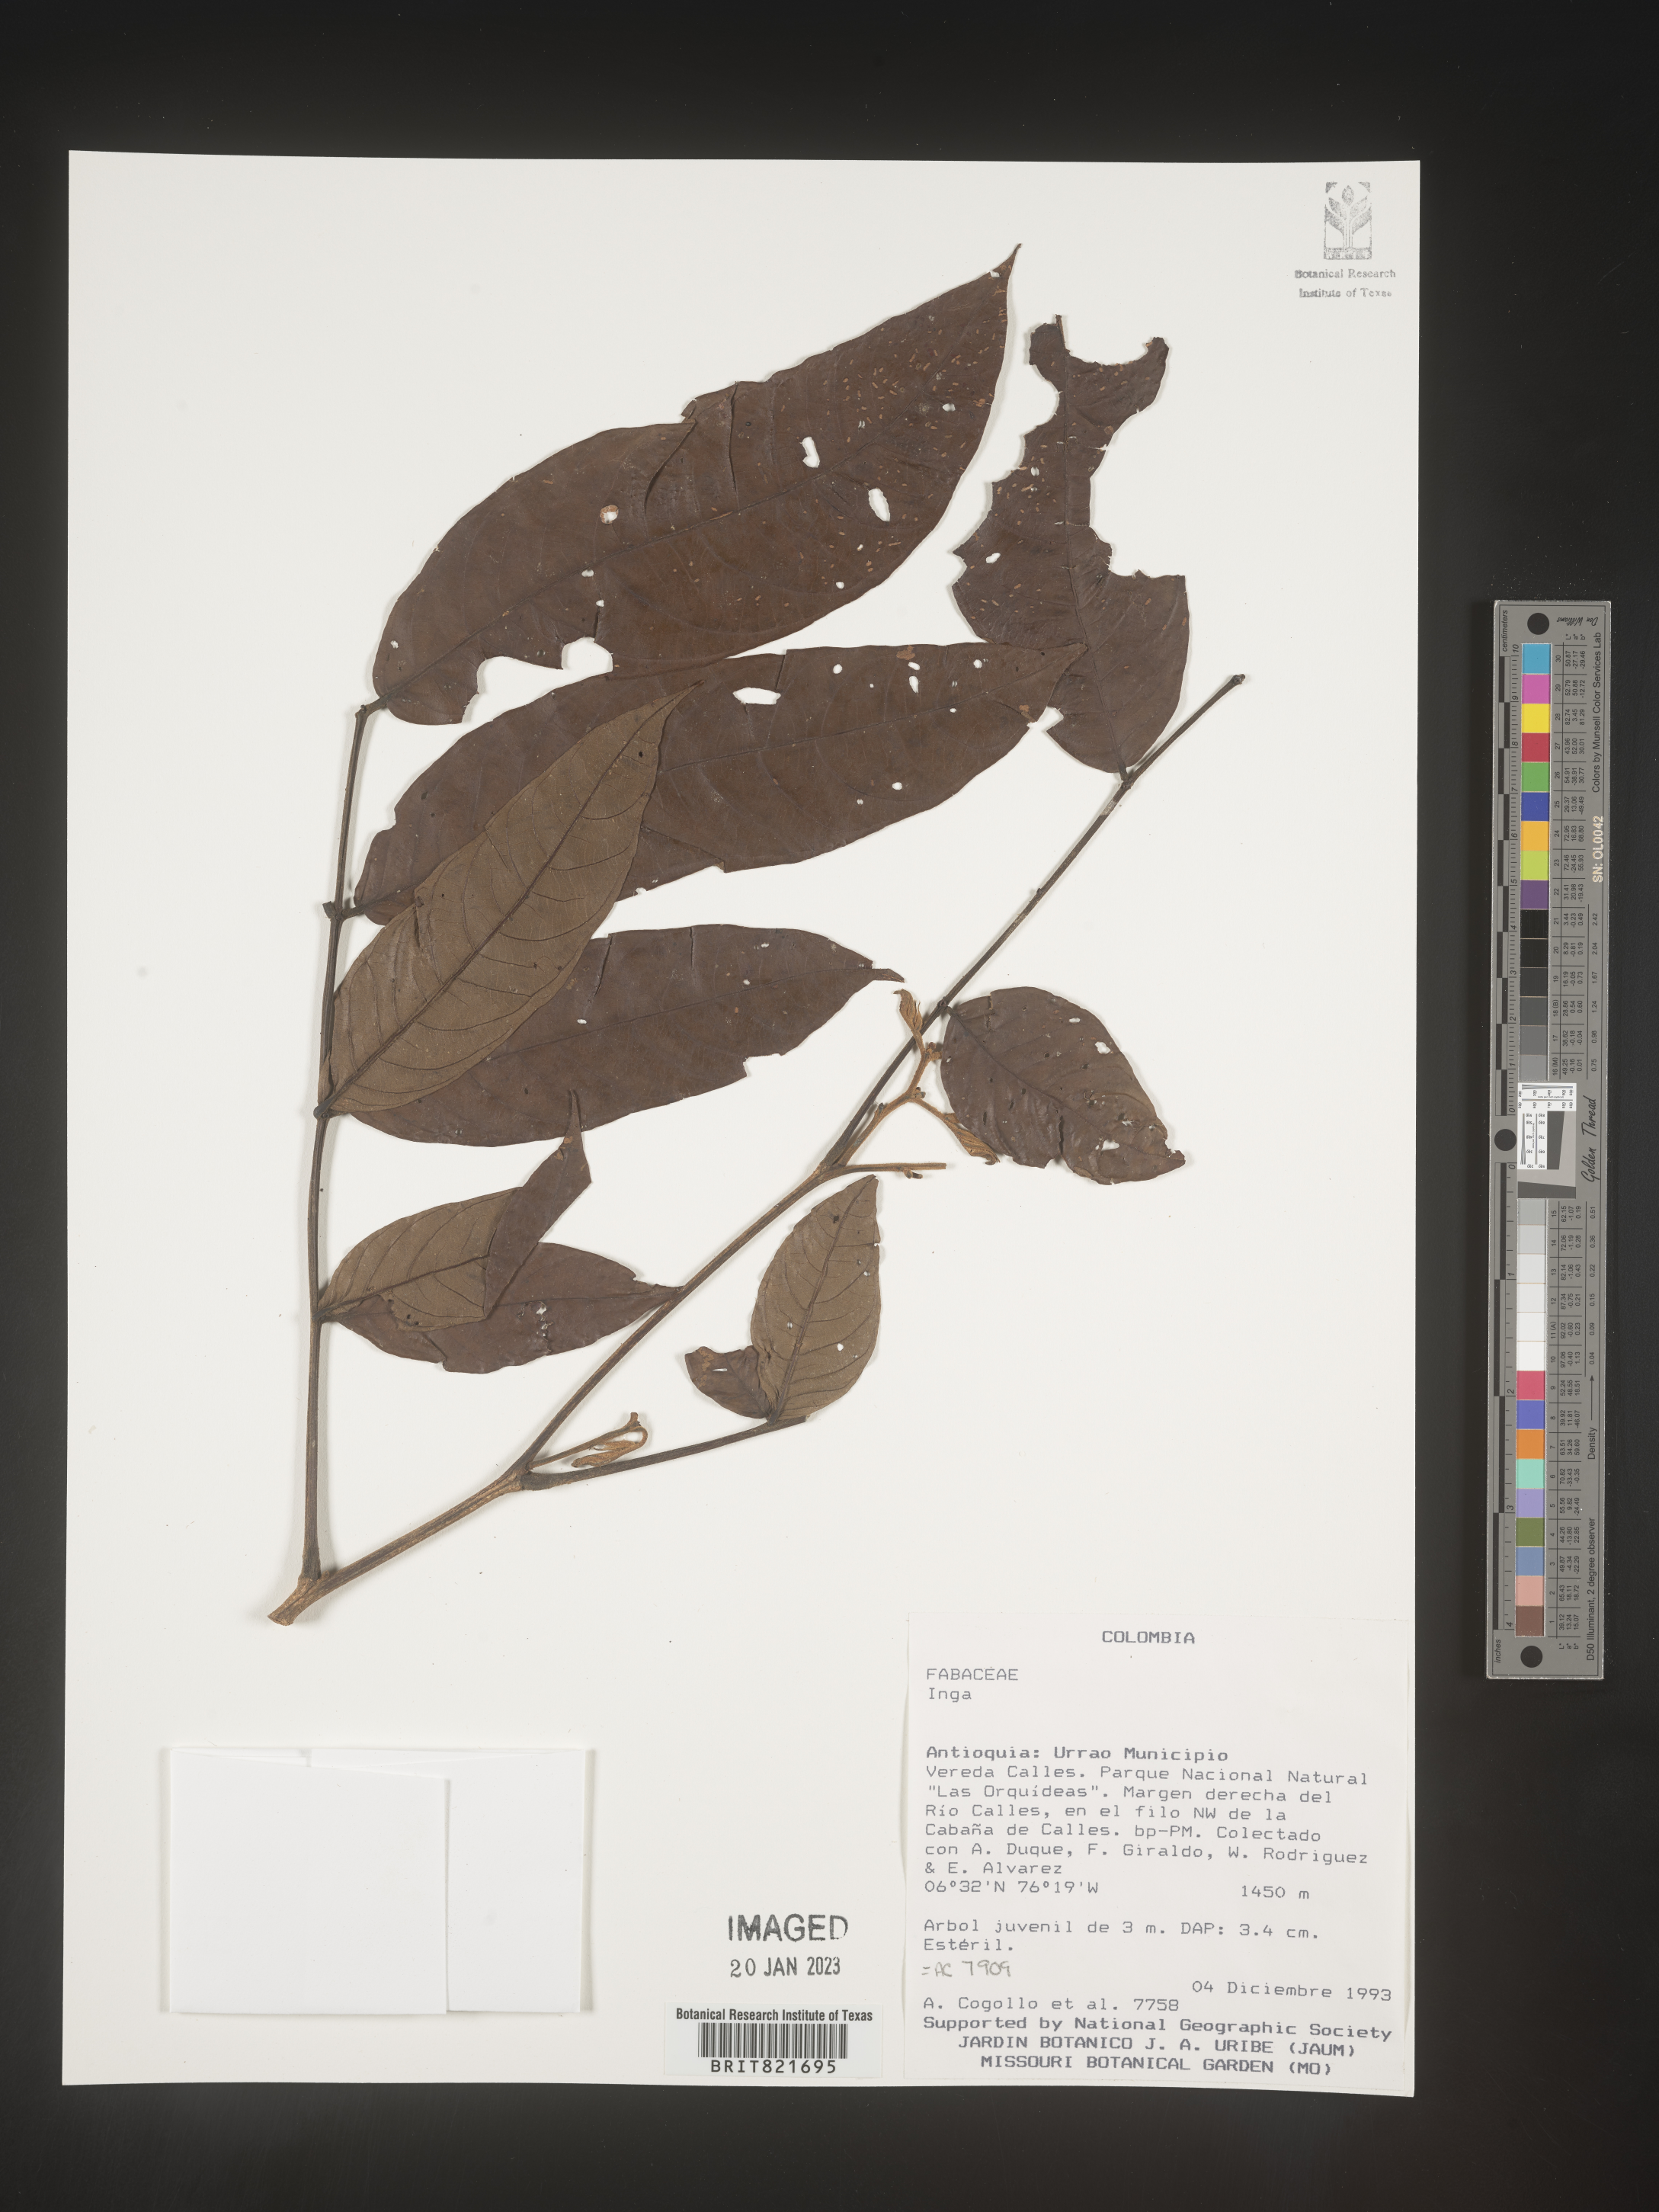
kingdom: Plantae
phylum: Tracheophyta
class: Magnoliopsida
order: Fabales
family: Fabaceae
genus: Inga
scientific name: Inga
